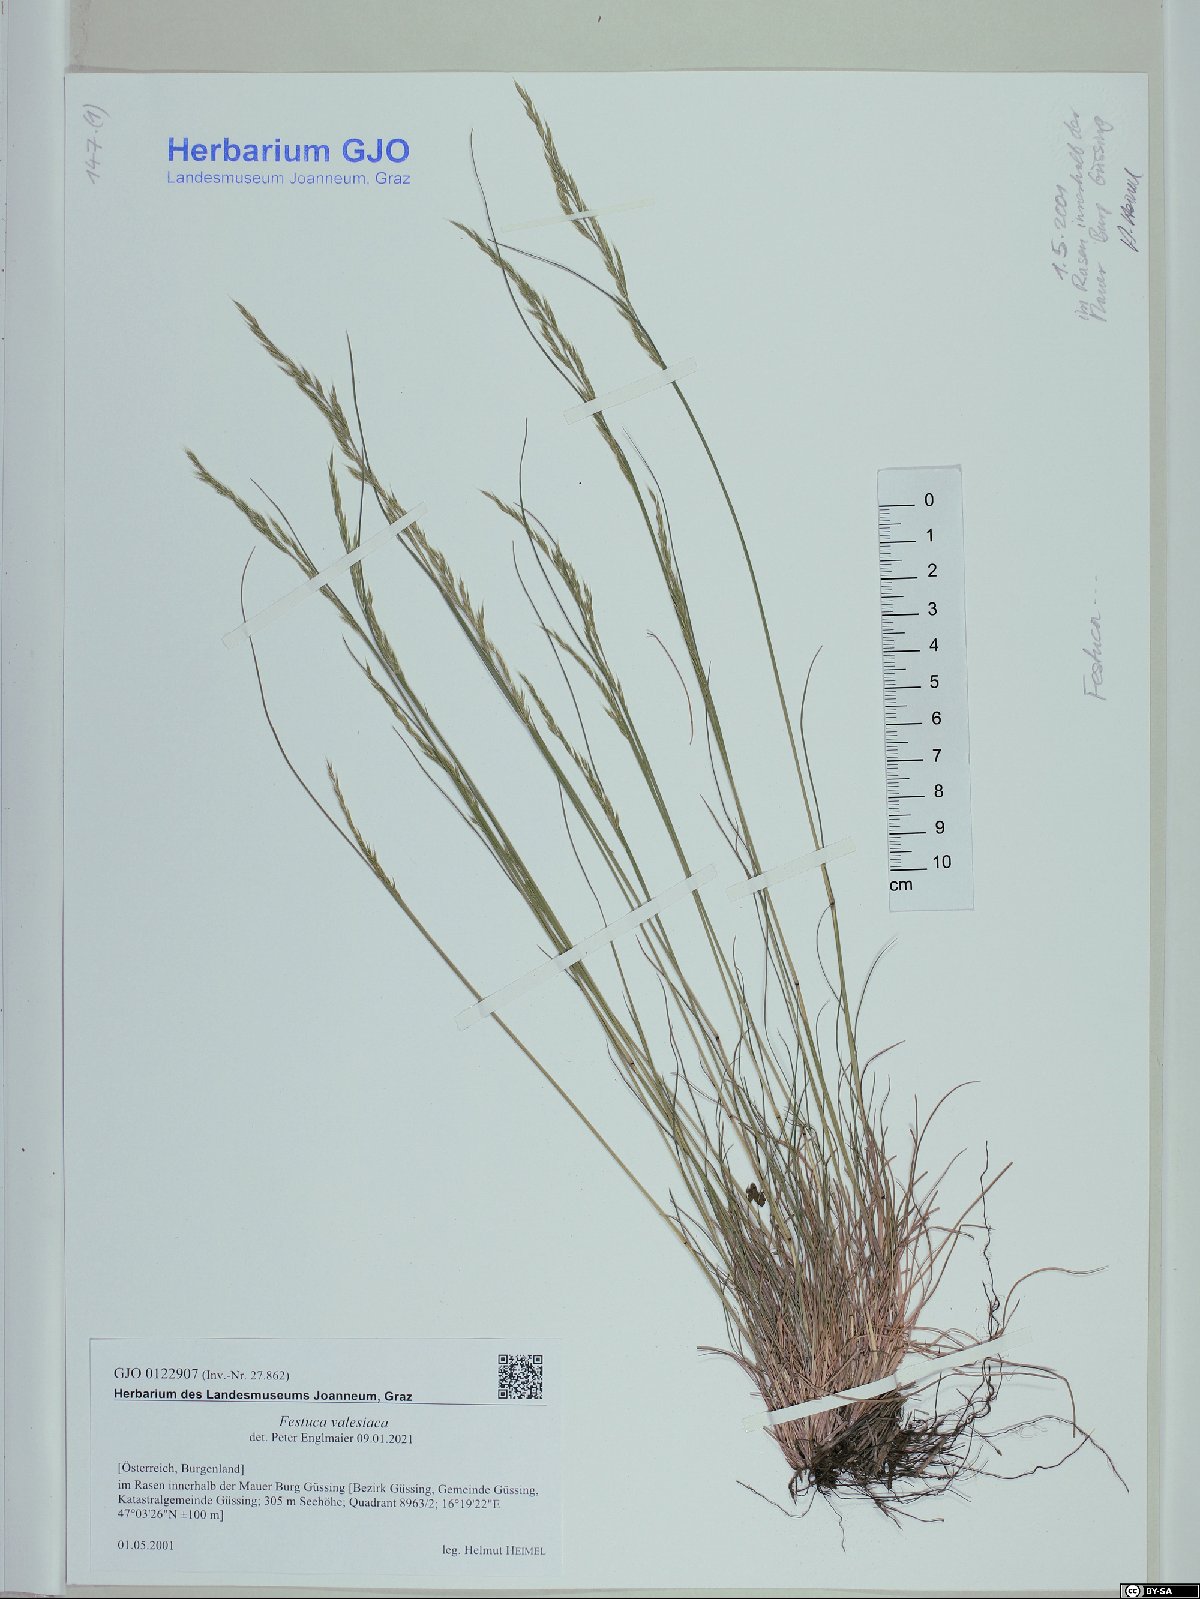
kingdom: Plantae
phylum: Tracheophyta
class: Liliopsida
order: Poales
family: Poaceae
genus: Festuca
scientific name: Festuca valesiaca
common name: Volga fescue
